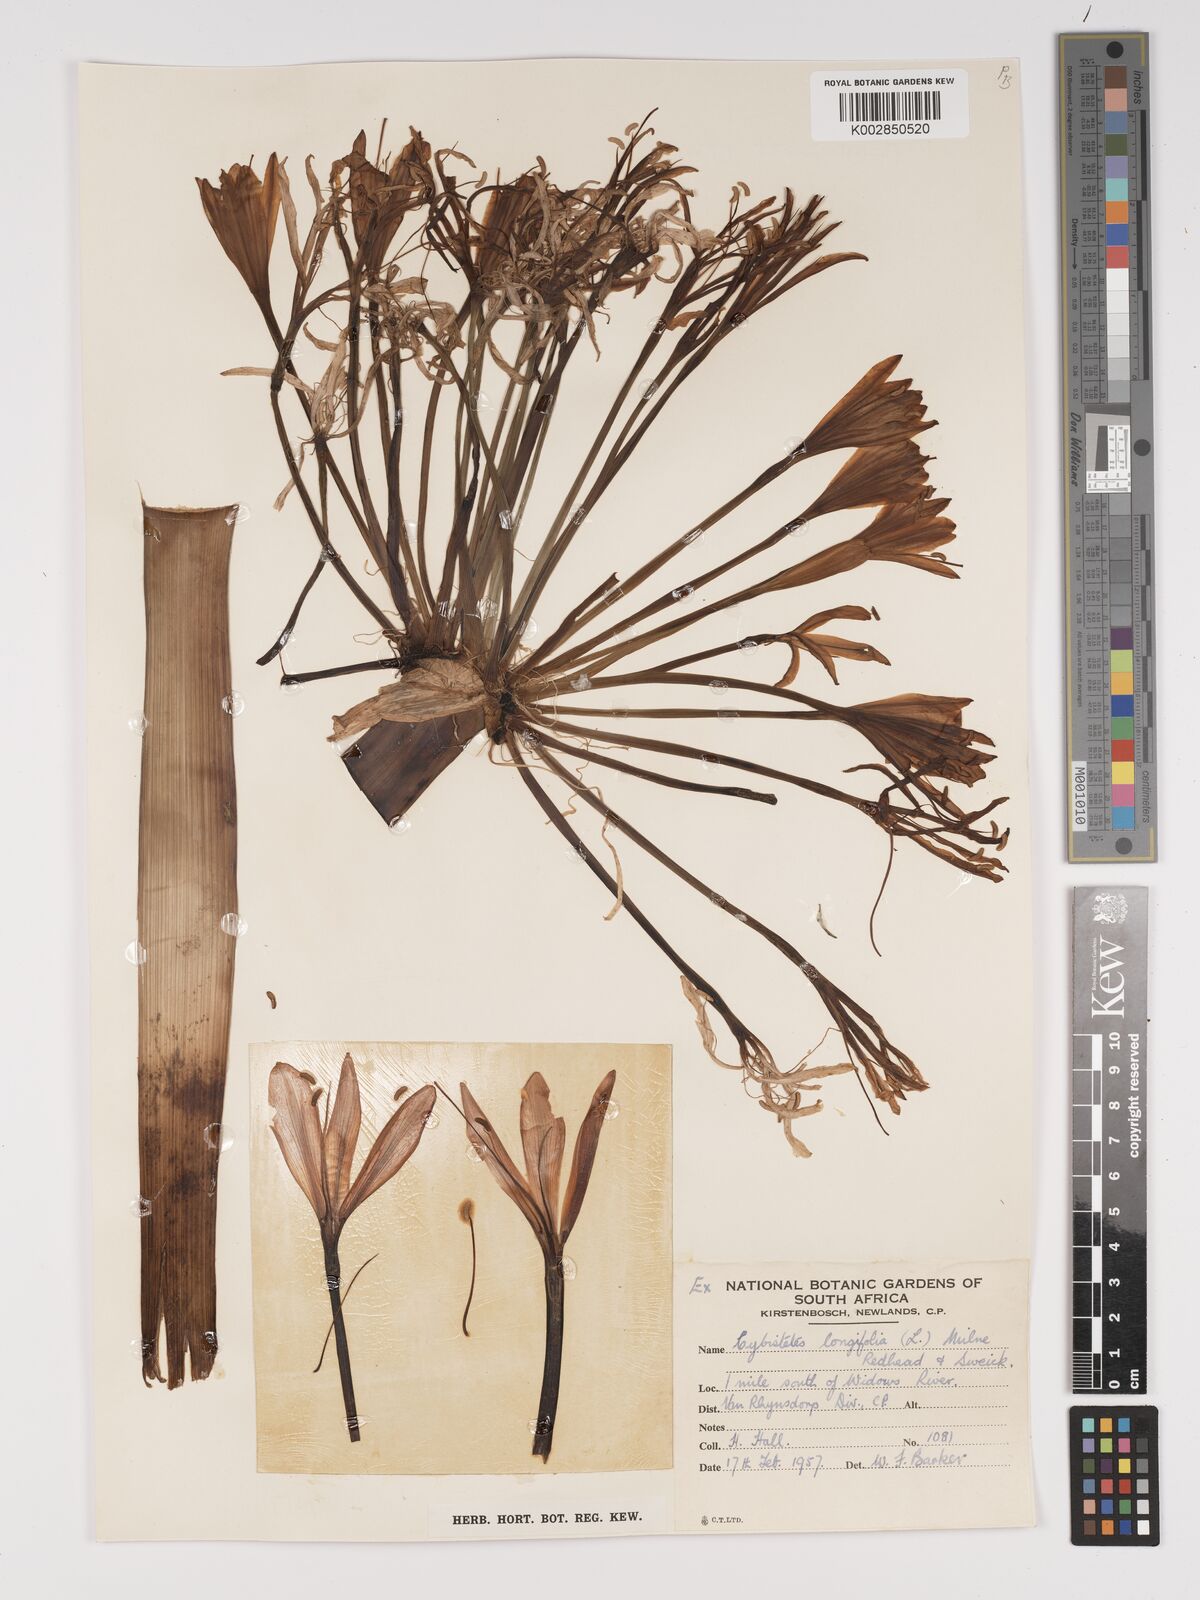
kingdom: Plantae
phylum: Tracheophyta
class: Liliopsida
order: Asparagales
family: Amaryllidaceae
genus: Ammocharis
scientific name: Ammocharis longifolia
